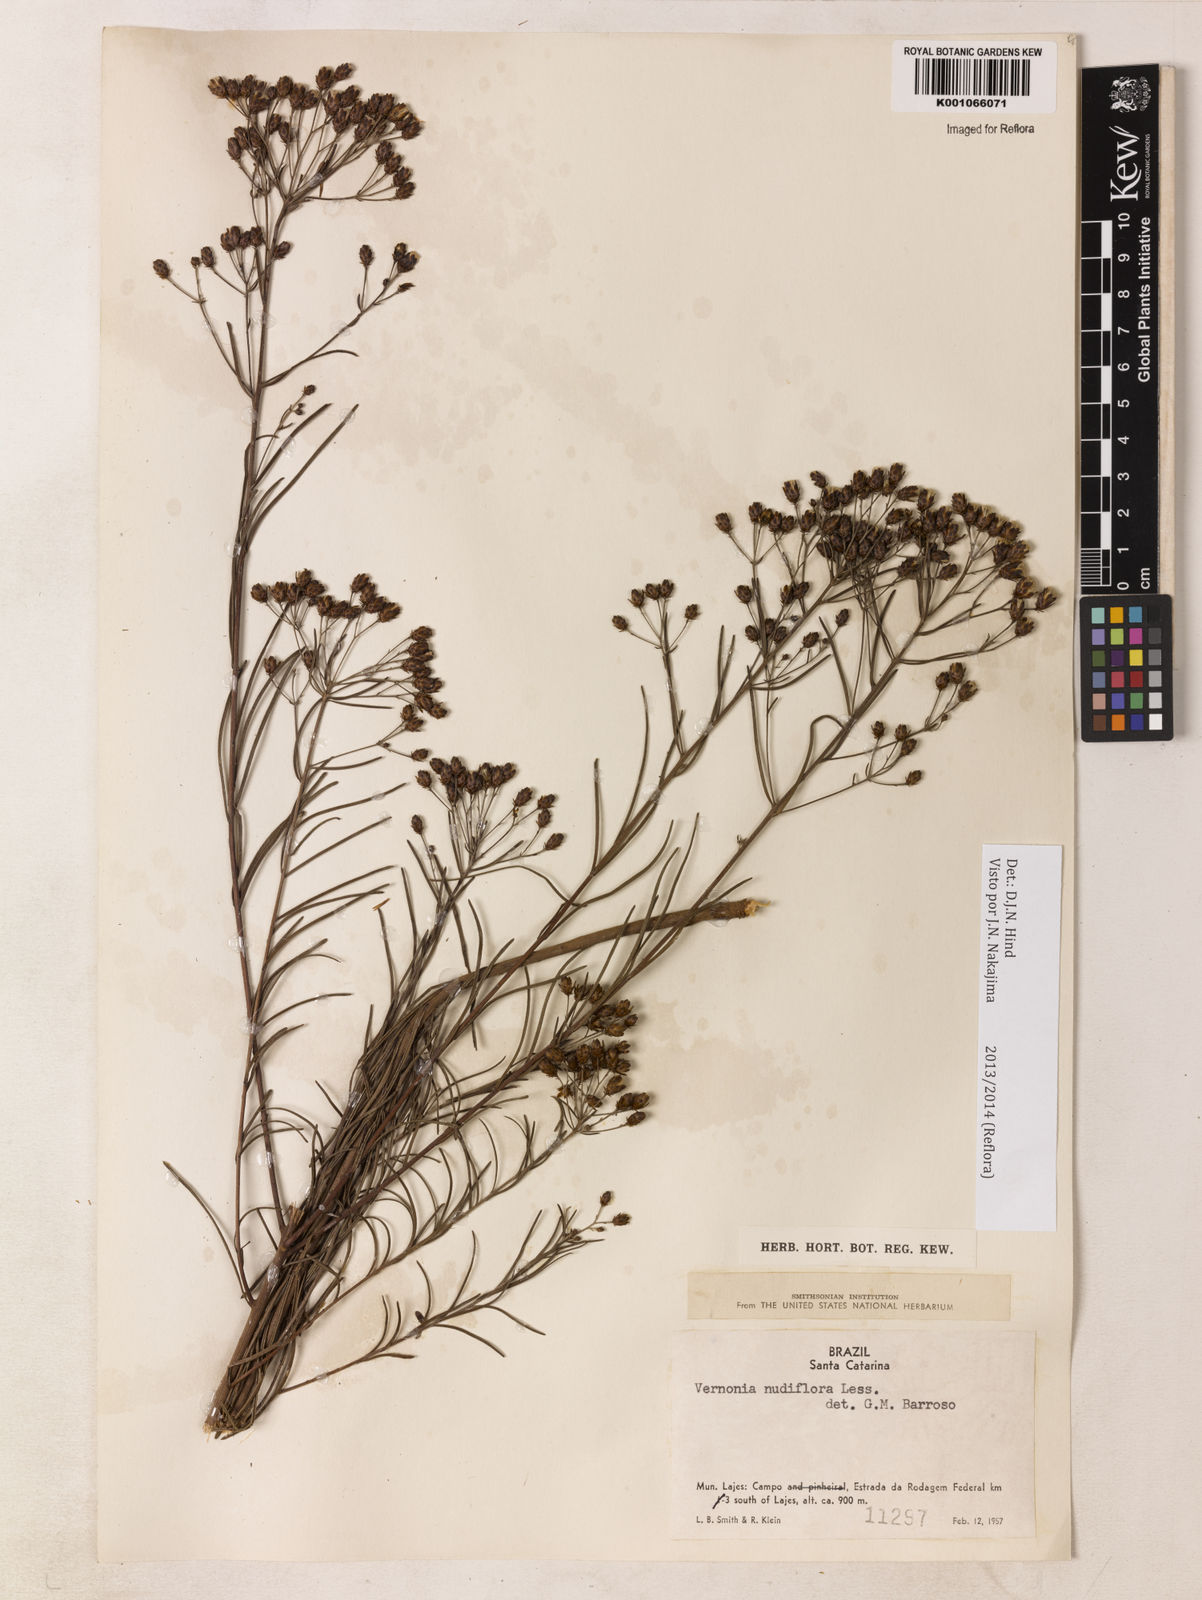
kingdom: Plantae
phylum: Tracheophyta
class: Magnoliopsida
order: Asterales
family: Asteraceae
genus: Vernonanthura
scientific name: Vernonanthura nudiflora
